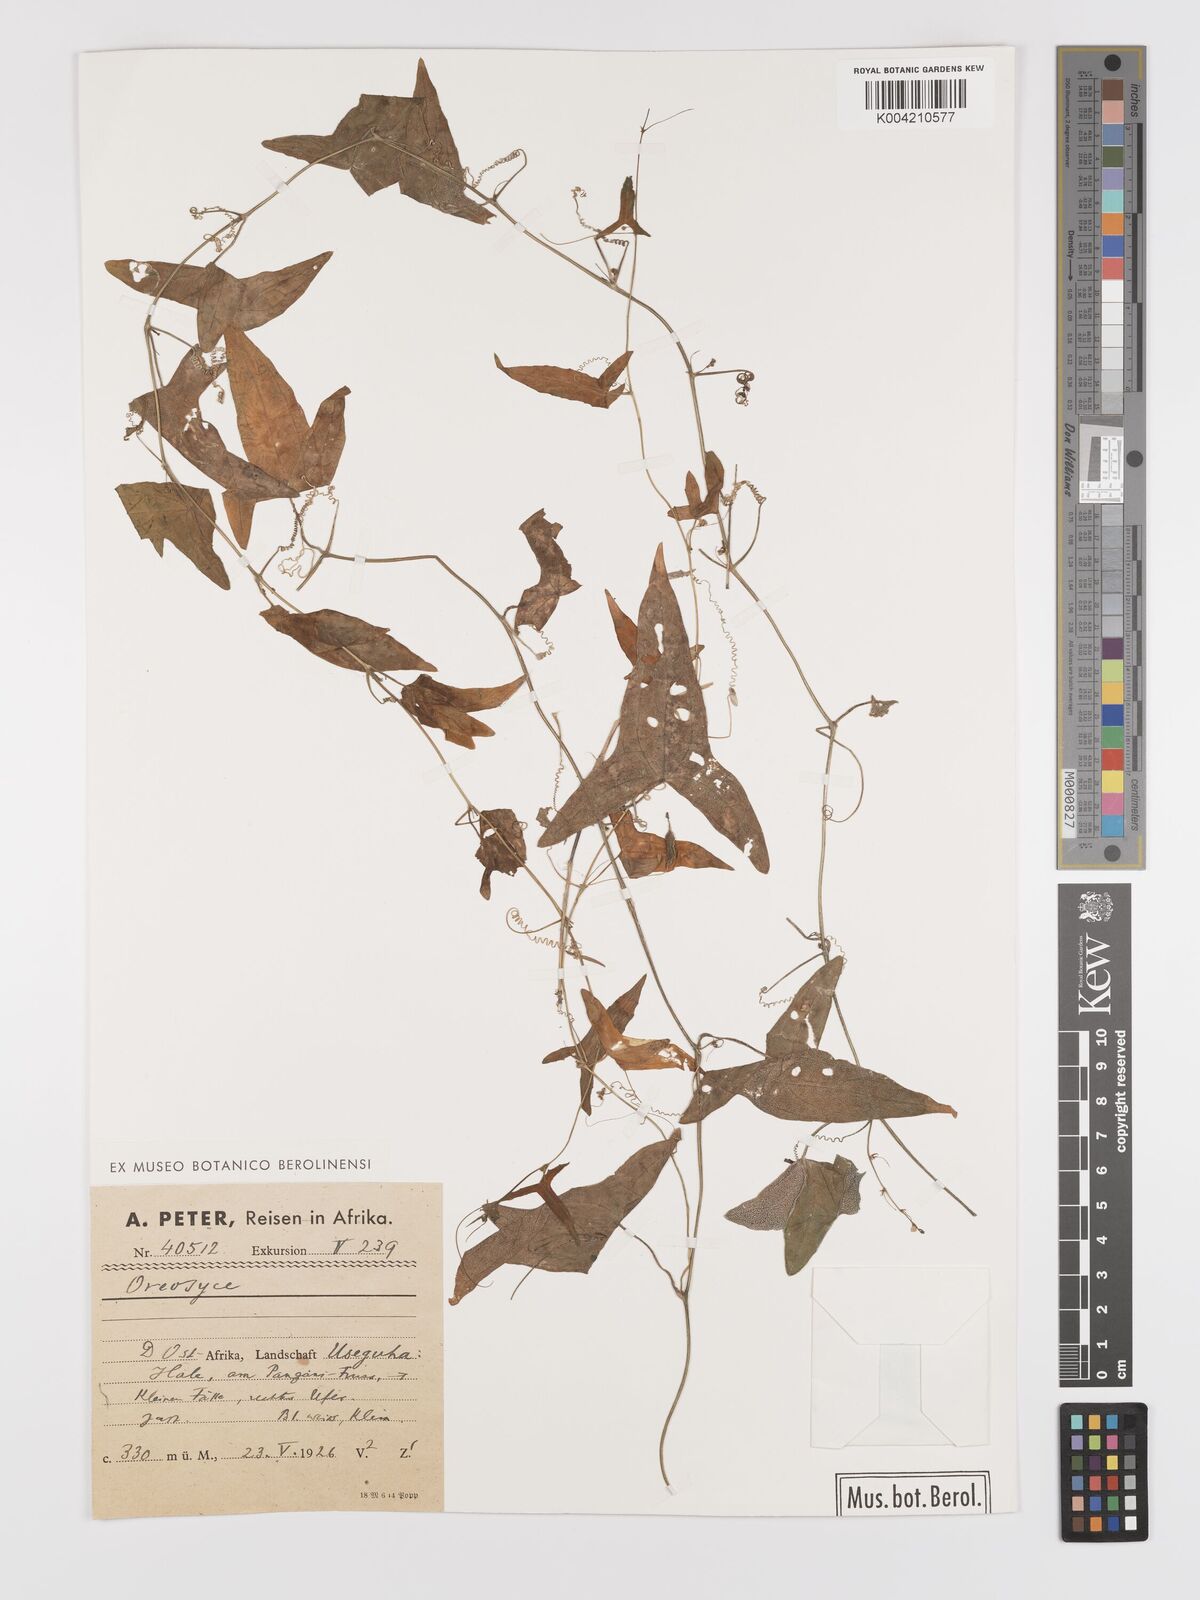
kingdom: Plantae
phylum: Tracheophyta
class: Magnoliopsida
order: Cucurbitales
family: Cucurbitaceae
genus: Zehneria
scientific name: Zehneria thwaitesii
